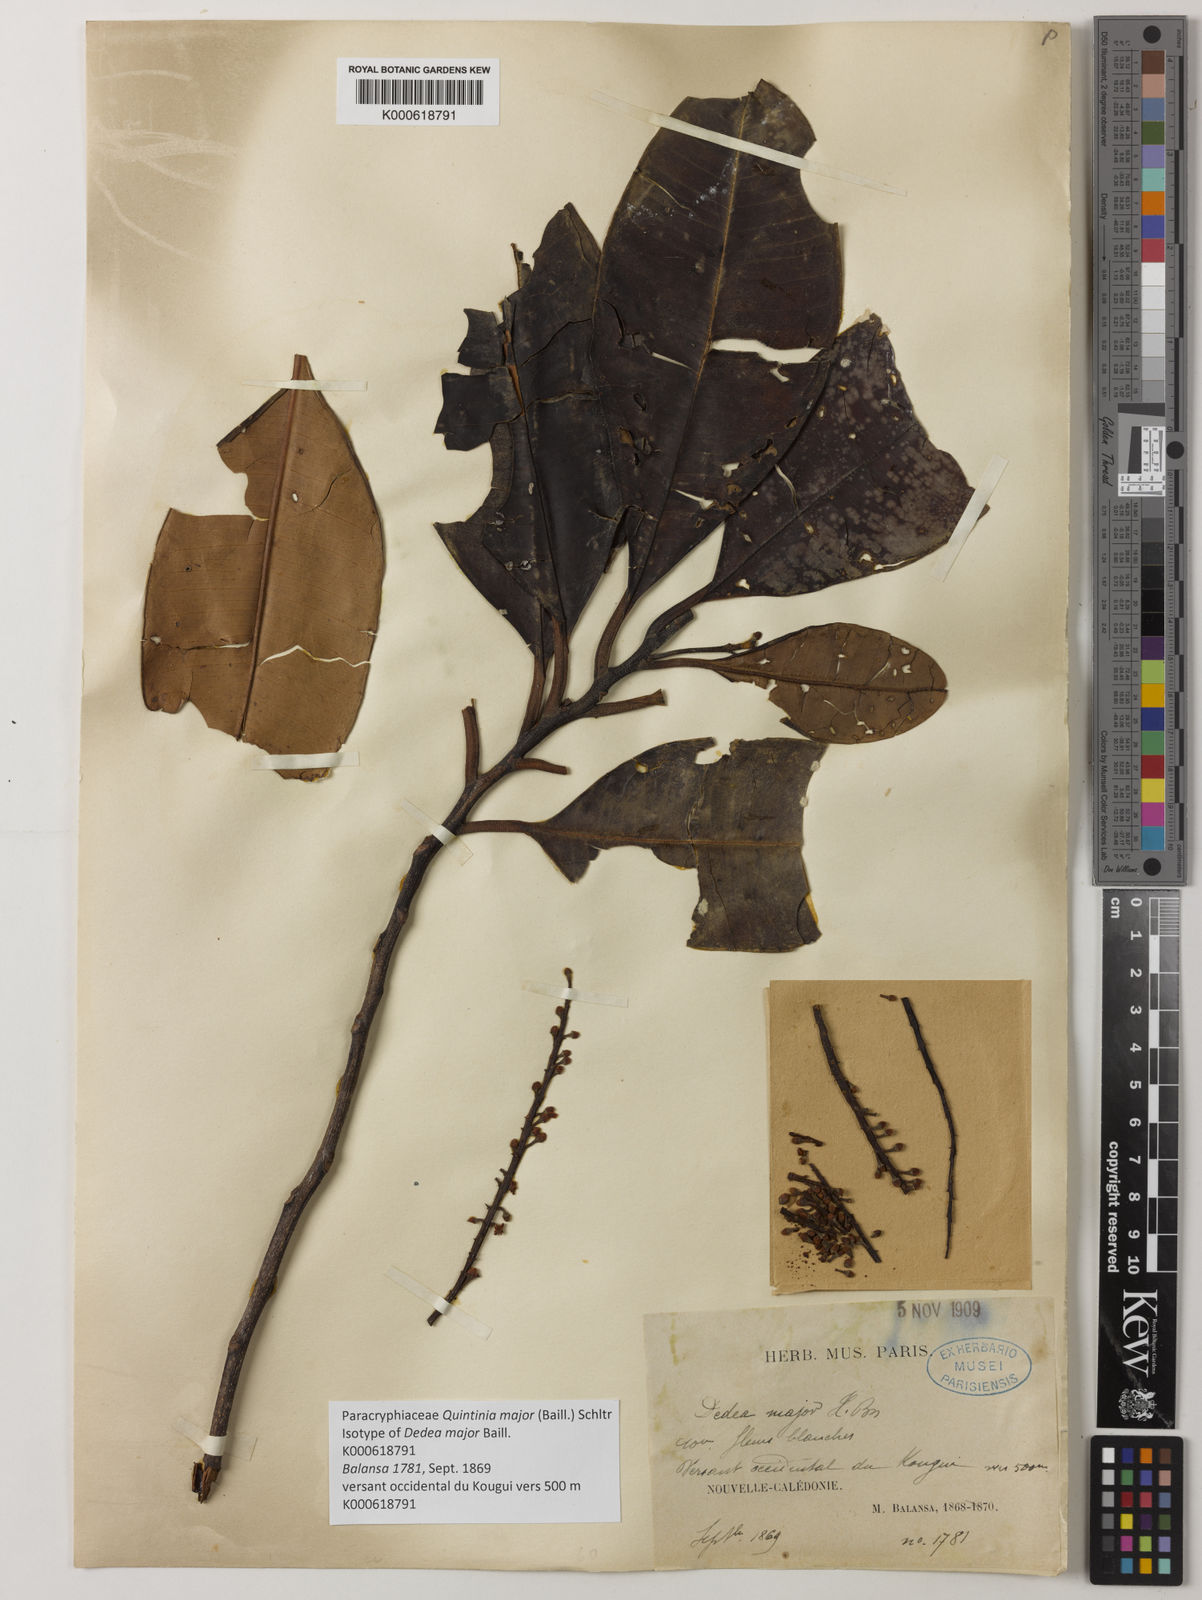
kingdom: Plantae
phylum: Tracheophyta
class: Magnoliopsida
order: Paracryphiales
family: Paracryphiaceae
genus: Quintinia
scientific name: Quintinia major
